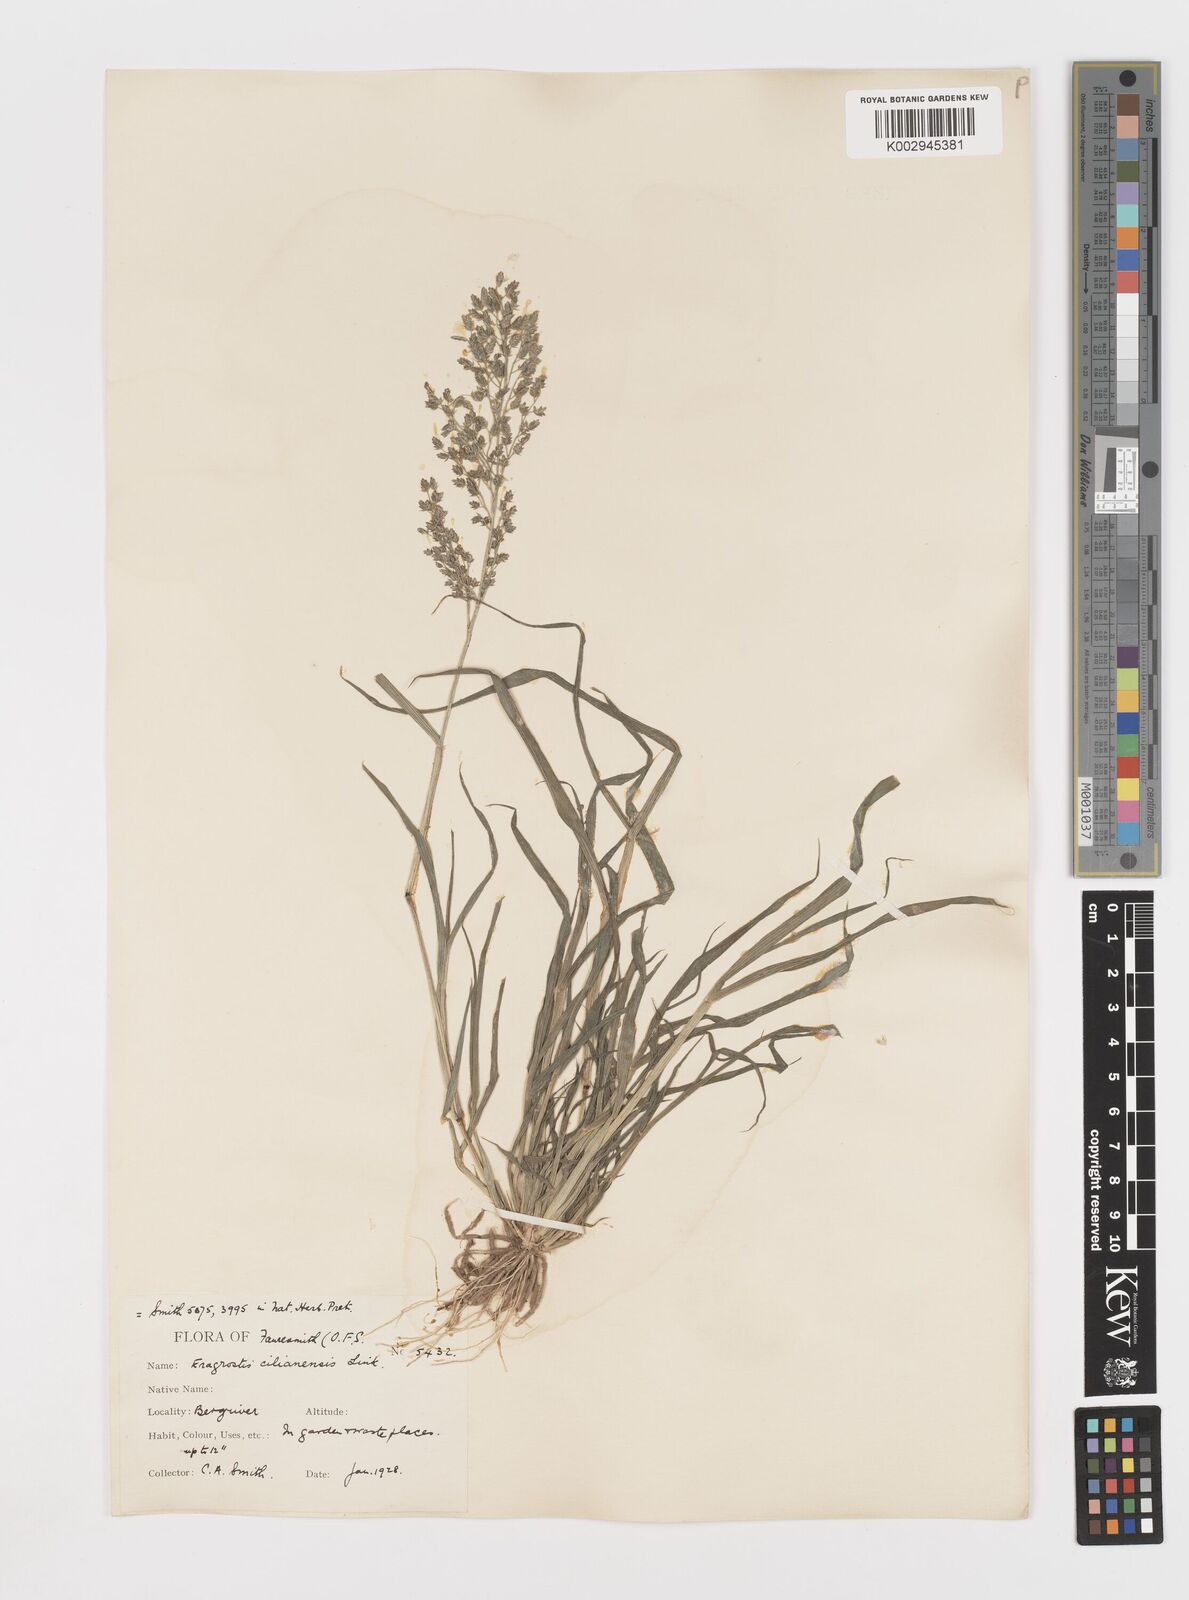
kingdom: Plantae
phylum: Tracheophyta
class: Liliopsida
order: Poales
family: Poaceae
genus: Eragrostis
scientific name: Eragrostis cilianensis
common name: Stinkgrass
